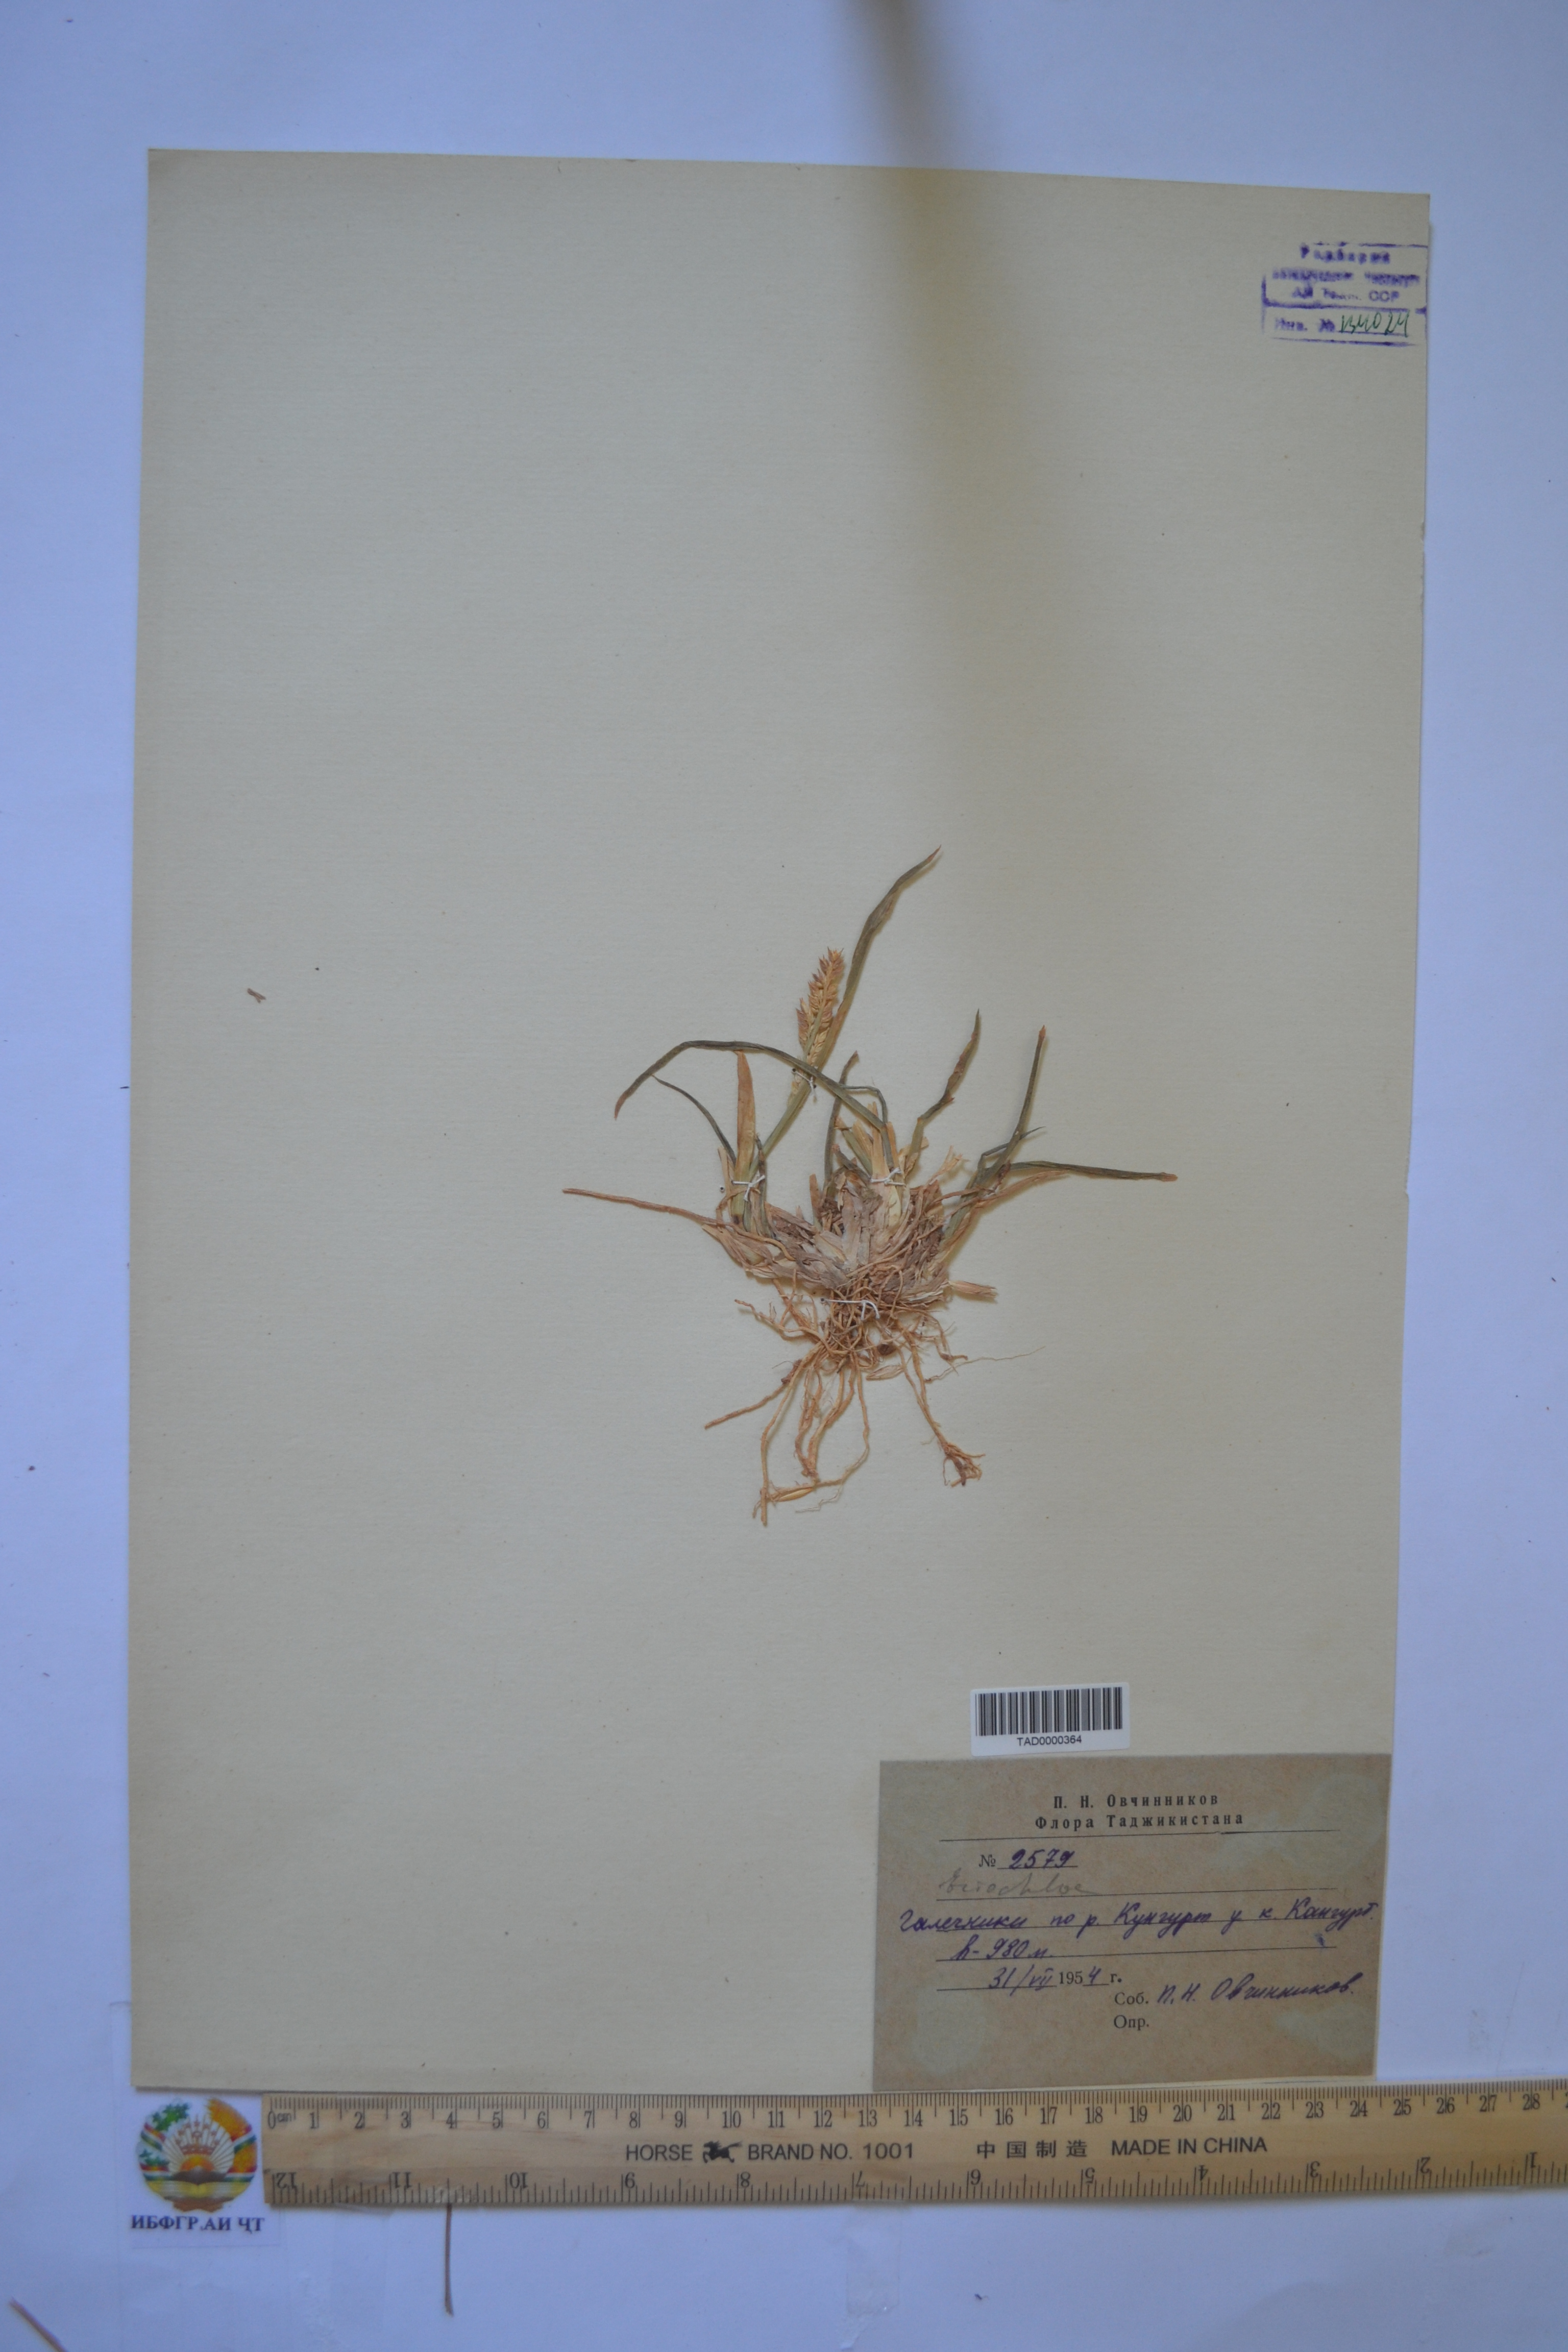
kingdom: Plantae
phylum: Tracheophyta
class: Liliopsida
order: Poales
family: Poaceae
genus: Echinochloa
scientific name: Echinochloa crus-galli
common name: Cockspur
